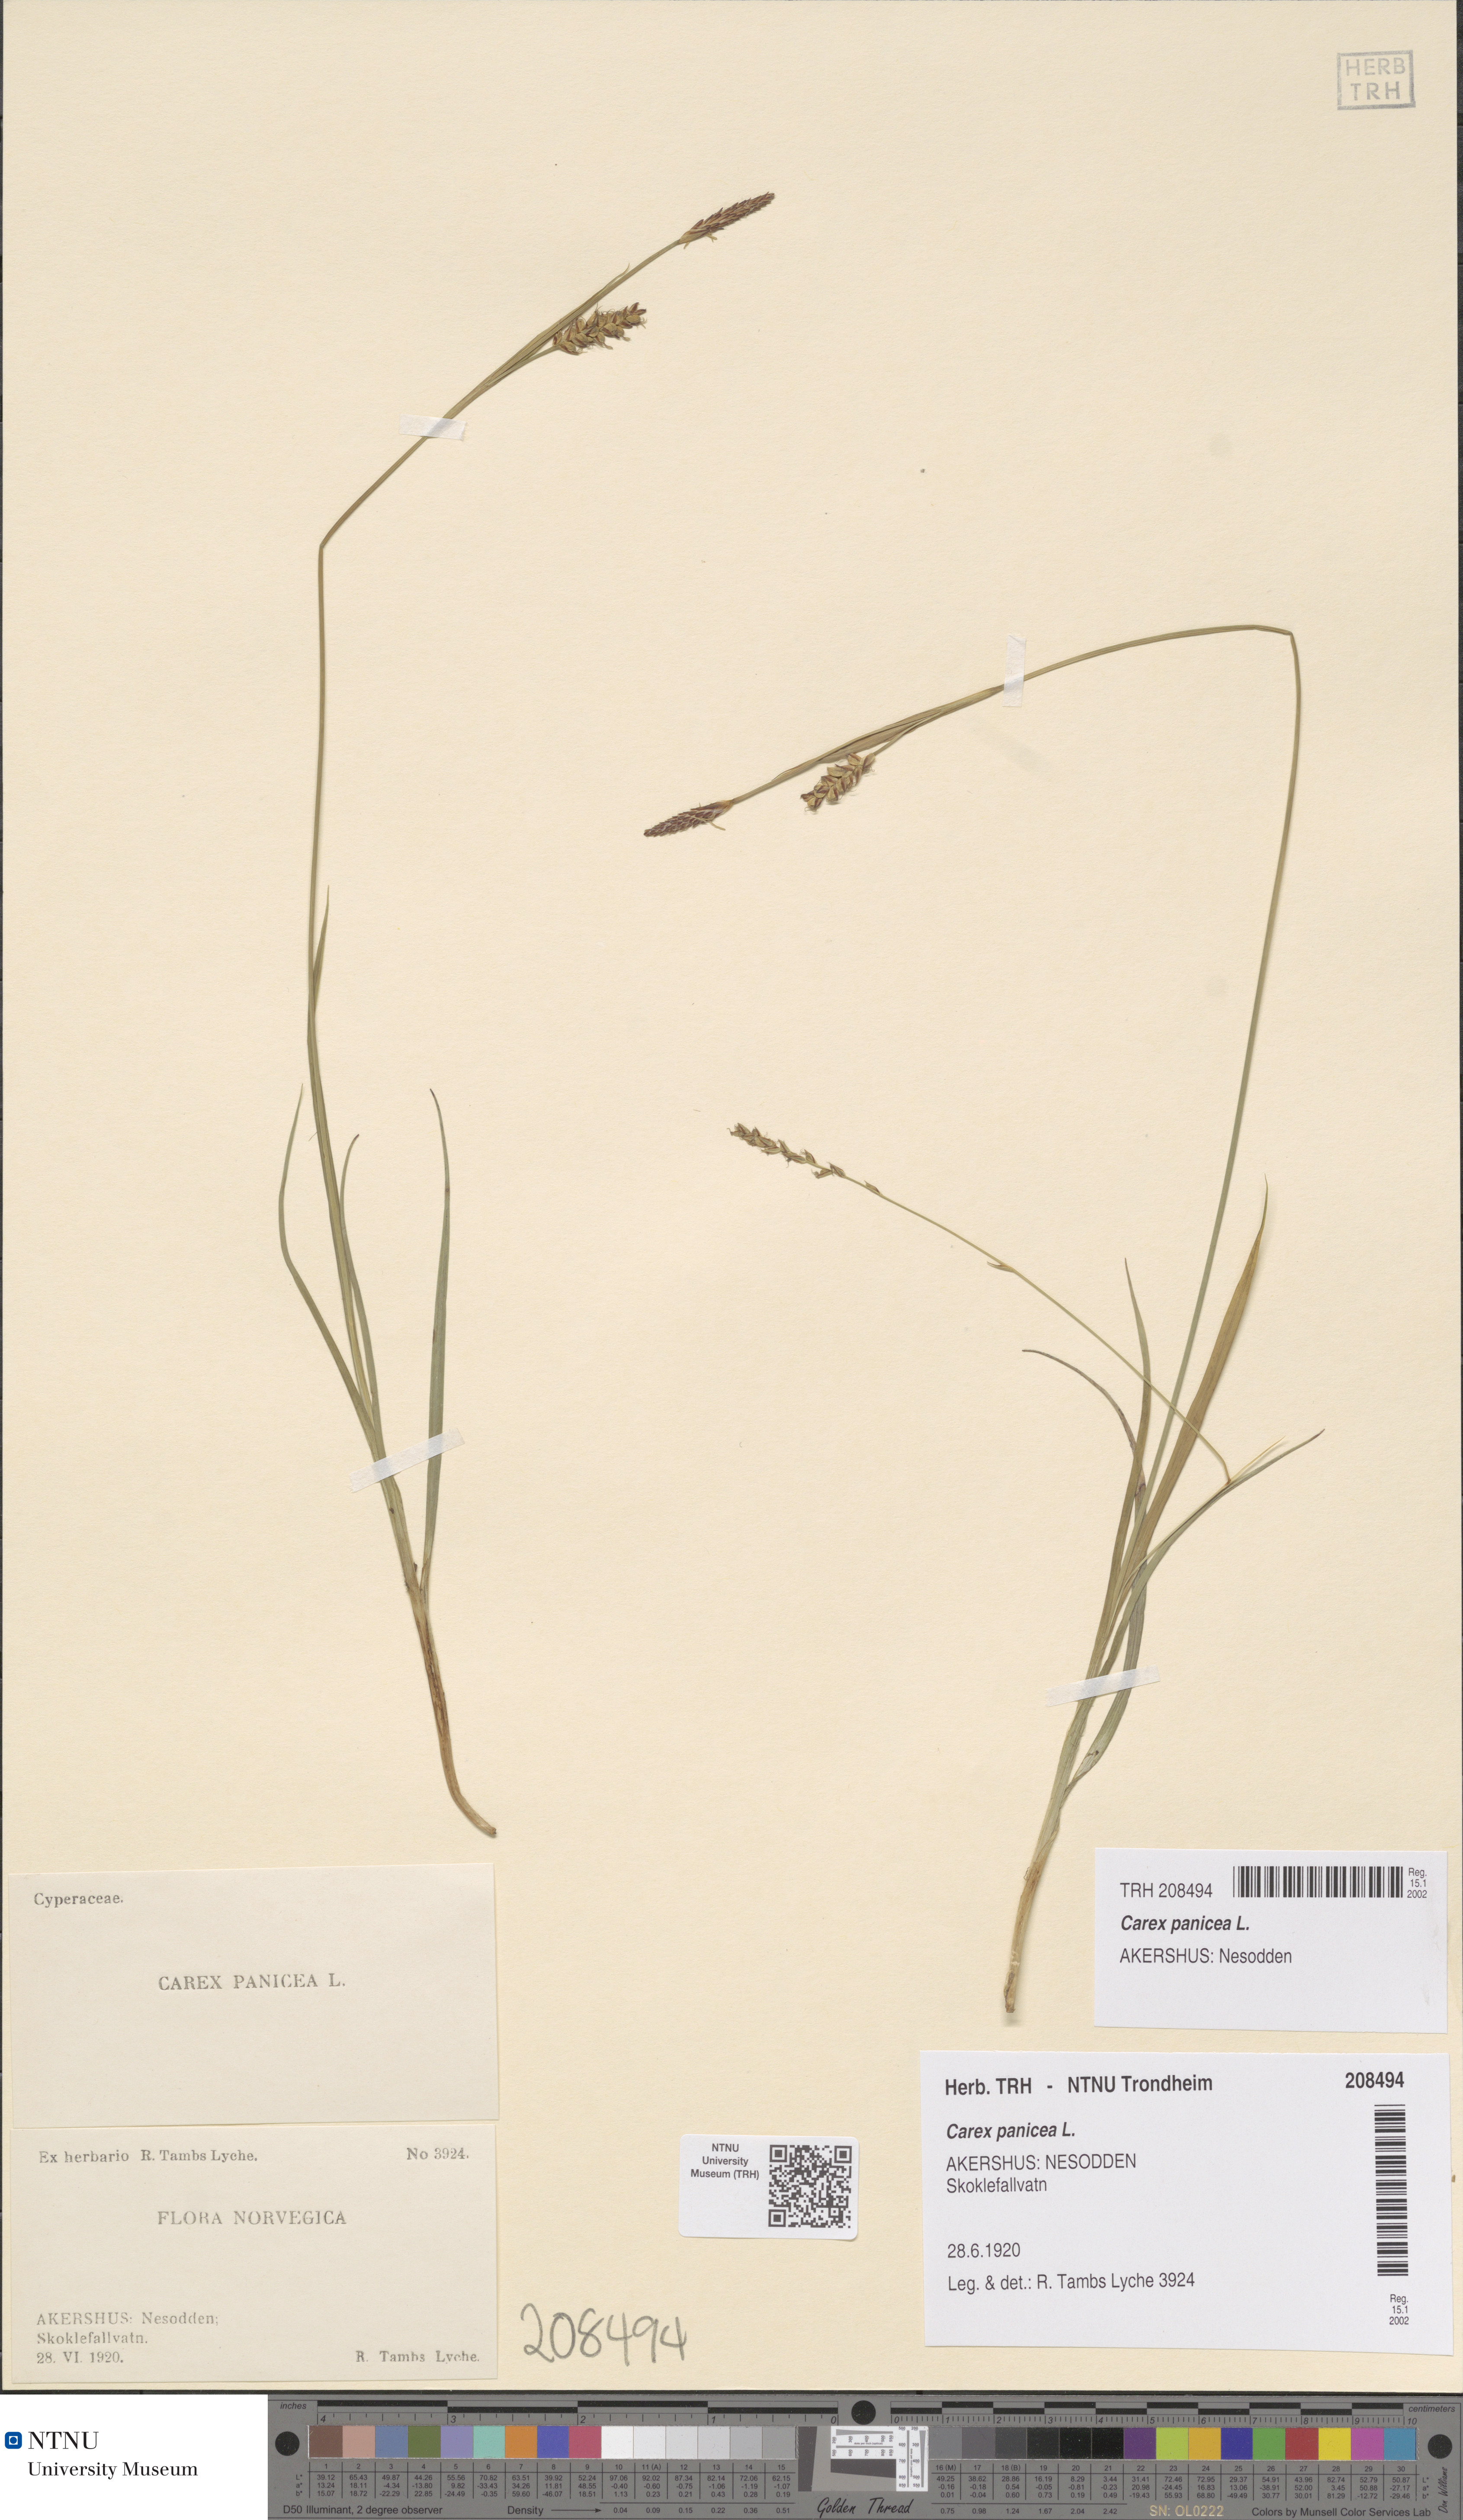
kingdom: Plantae
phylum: Tracheophyta
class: Liliopsida
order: Poales
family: Cyperaceae
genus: Carex
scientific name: Carex panicea
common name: Carnation sedge
